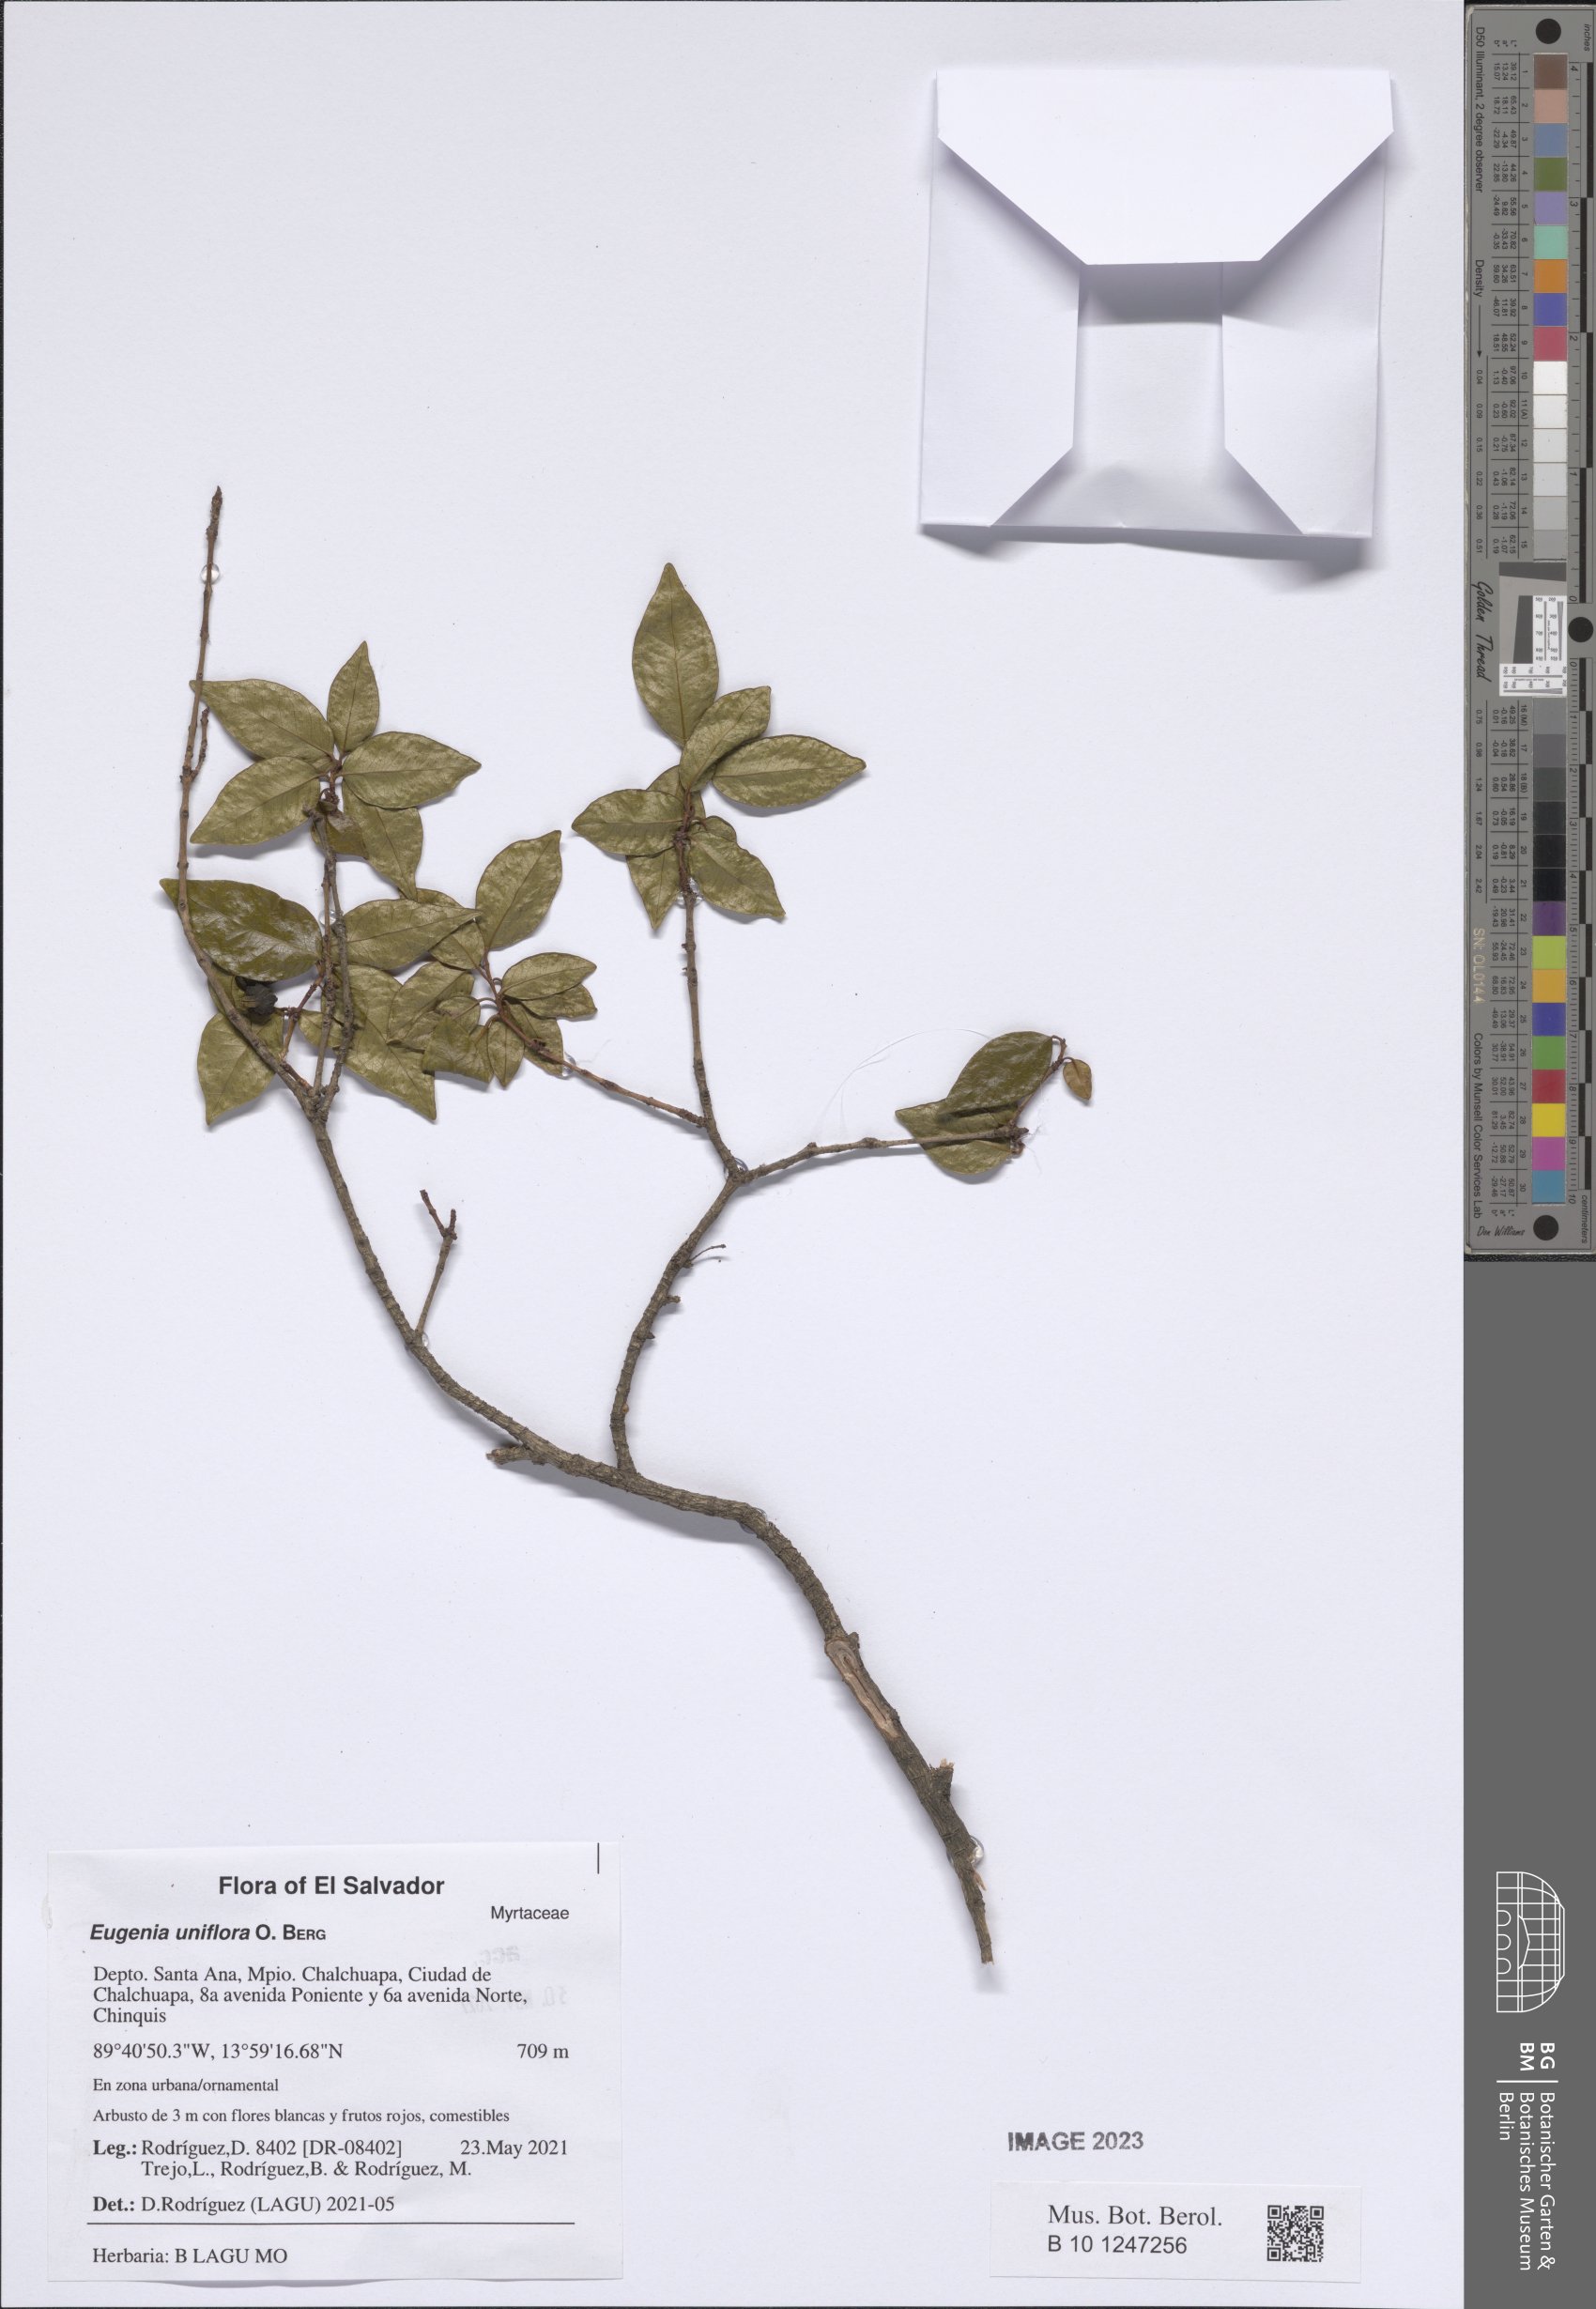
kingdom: Plantae
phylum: Tracheophyta
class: Magnoliopsida
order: Myrtales
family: Myrtaceae
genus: Eugenia
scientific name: Eugenia bergii
